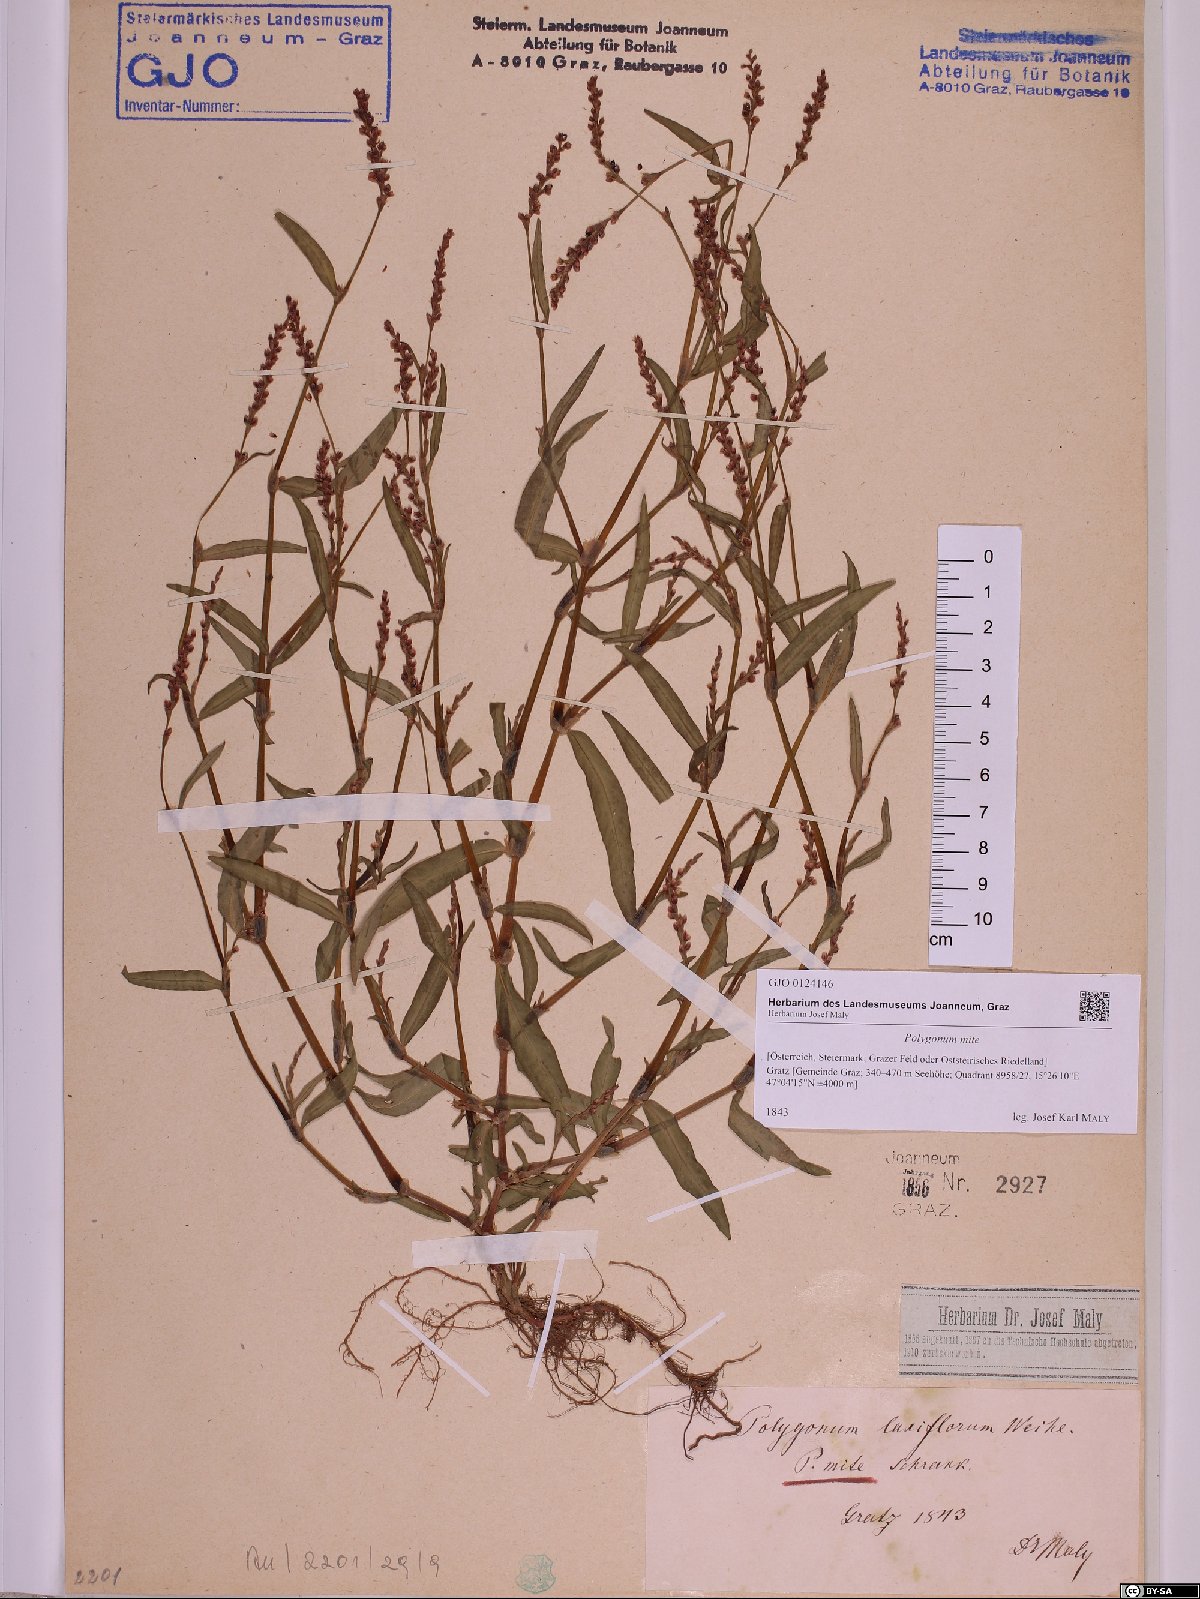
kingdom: Plantae
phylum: Tracheophyta
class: Magnoliopsida
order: Caryophyllales
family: Polygonaceae
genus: Persicaria
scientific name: Persicaria mitis
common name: Tasteless water-pepper
